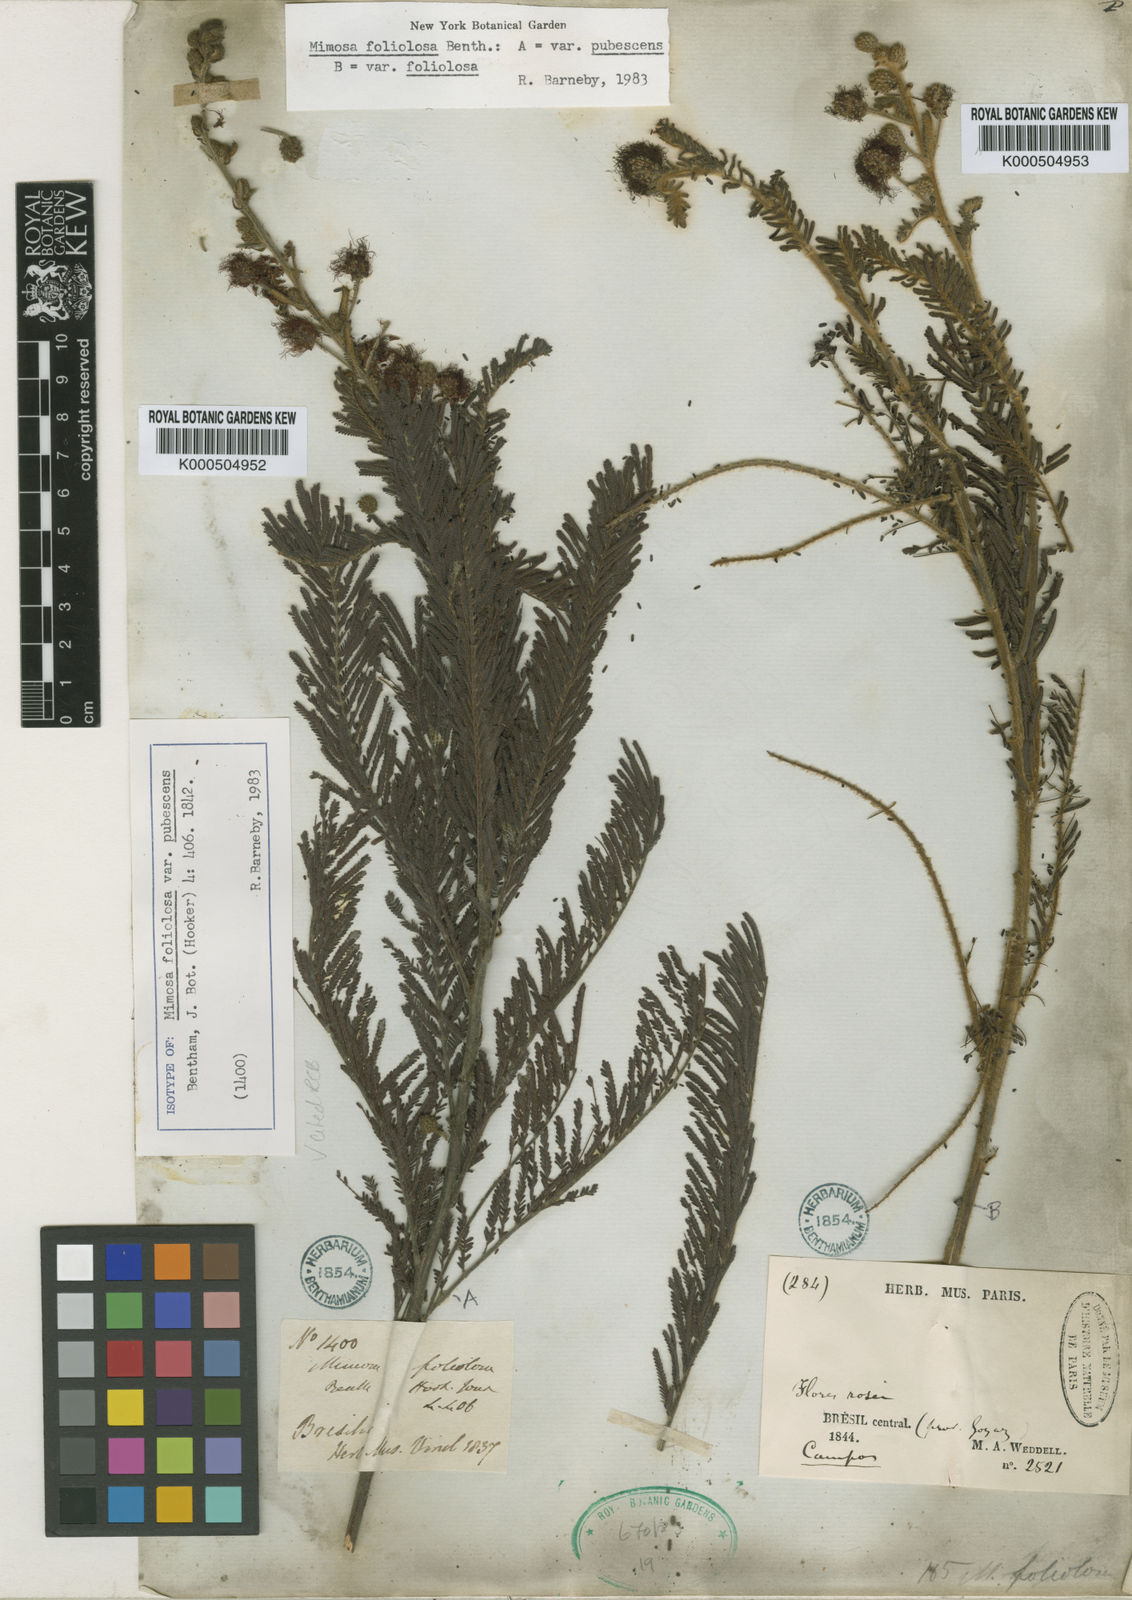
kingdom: Plantae
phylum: Tracheophyta
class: Magnoliopsida
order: Fabales
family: Fabaceae
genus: Mimosa
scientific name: Mimosa
